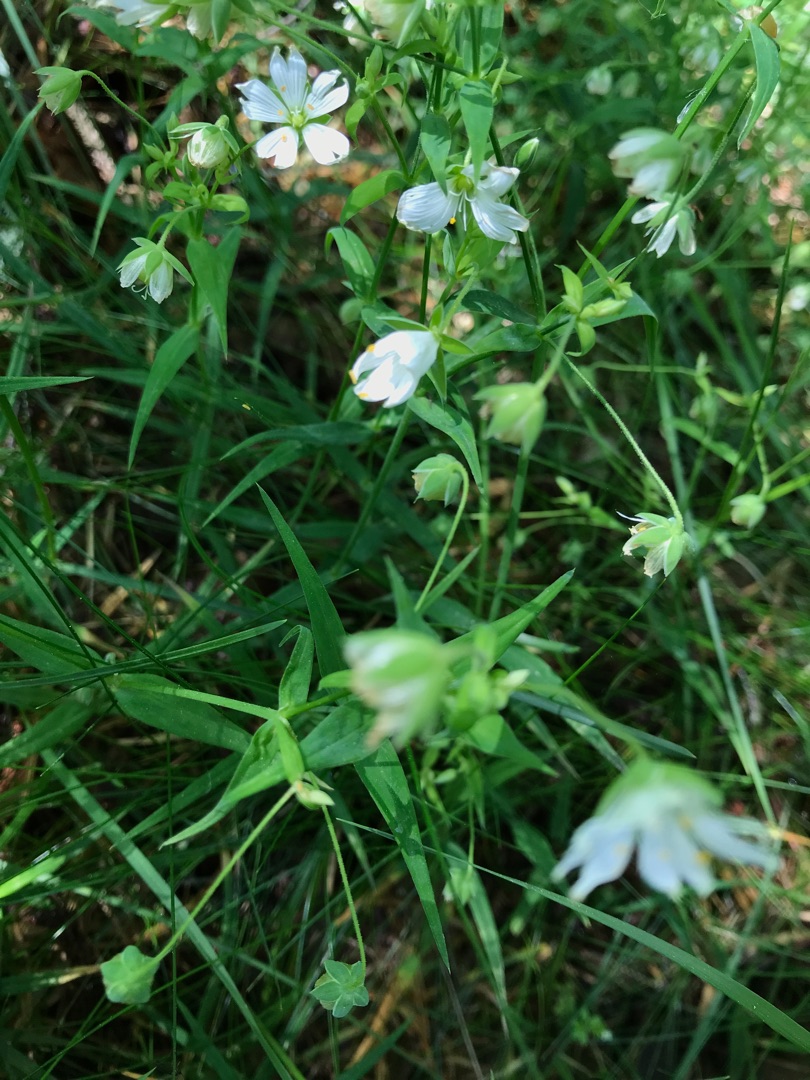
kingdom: Plantae
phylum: Tracheophyta
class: Magnoliopsida
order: Caryophyllales
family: Caryophyllaceae
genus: Rabelera
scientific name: Rabelera holostea
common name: Stor fladstjerne
